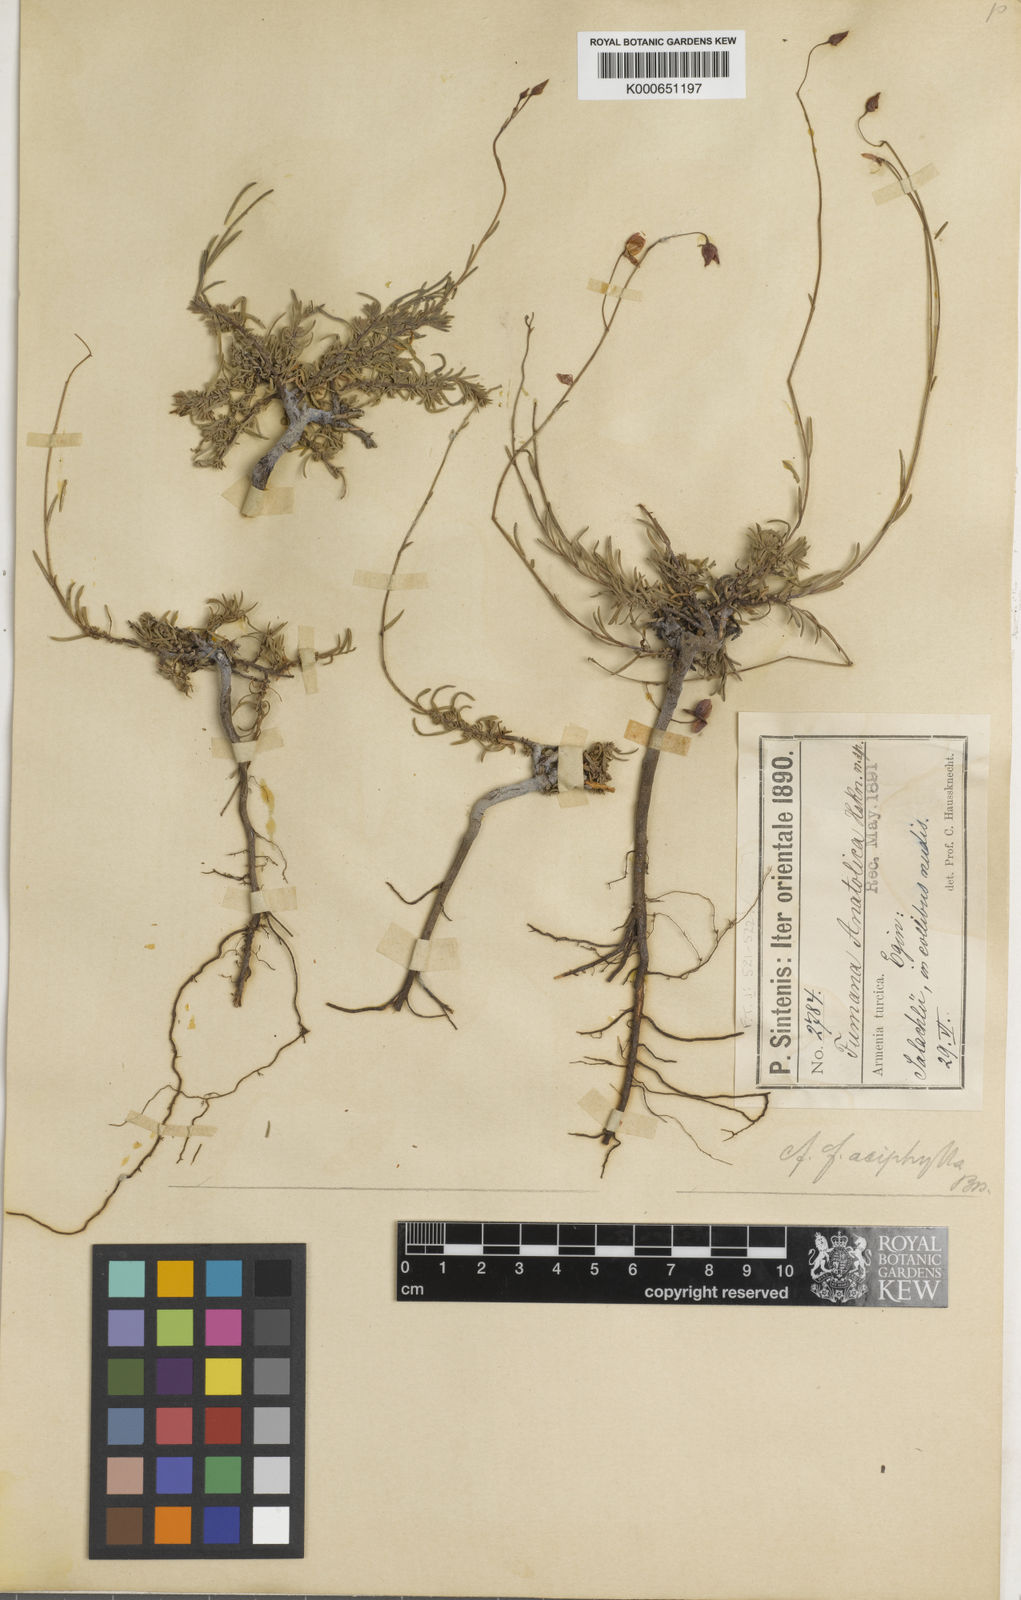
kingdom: Plantae
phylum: Tracheophyta
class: Magnoliopsida
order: Malvales
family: Cistaceae
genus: Fumana
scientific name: Fumana aciphylla
